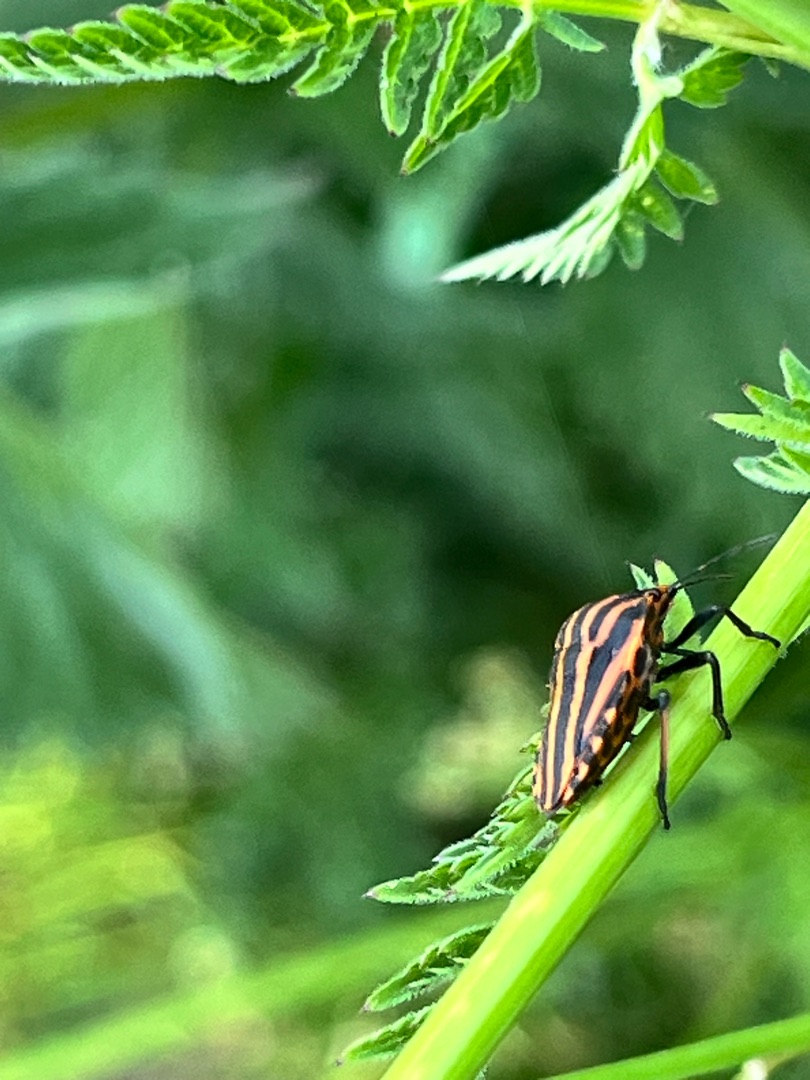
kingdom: Animalia
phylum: Arthropoda
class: Insecta
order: Hemiptera
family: Pentatomidae
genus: Graphosoma
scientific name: Graphosoma italicum
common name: Stribetæge
